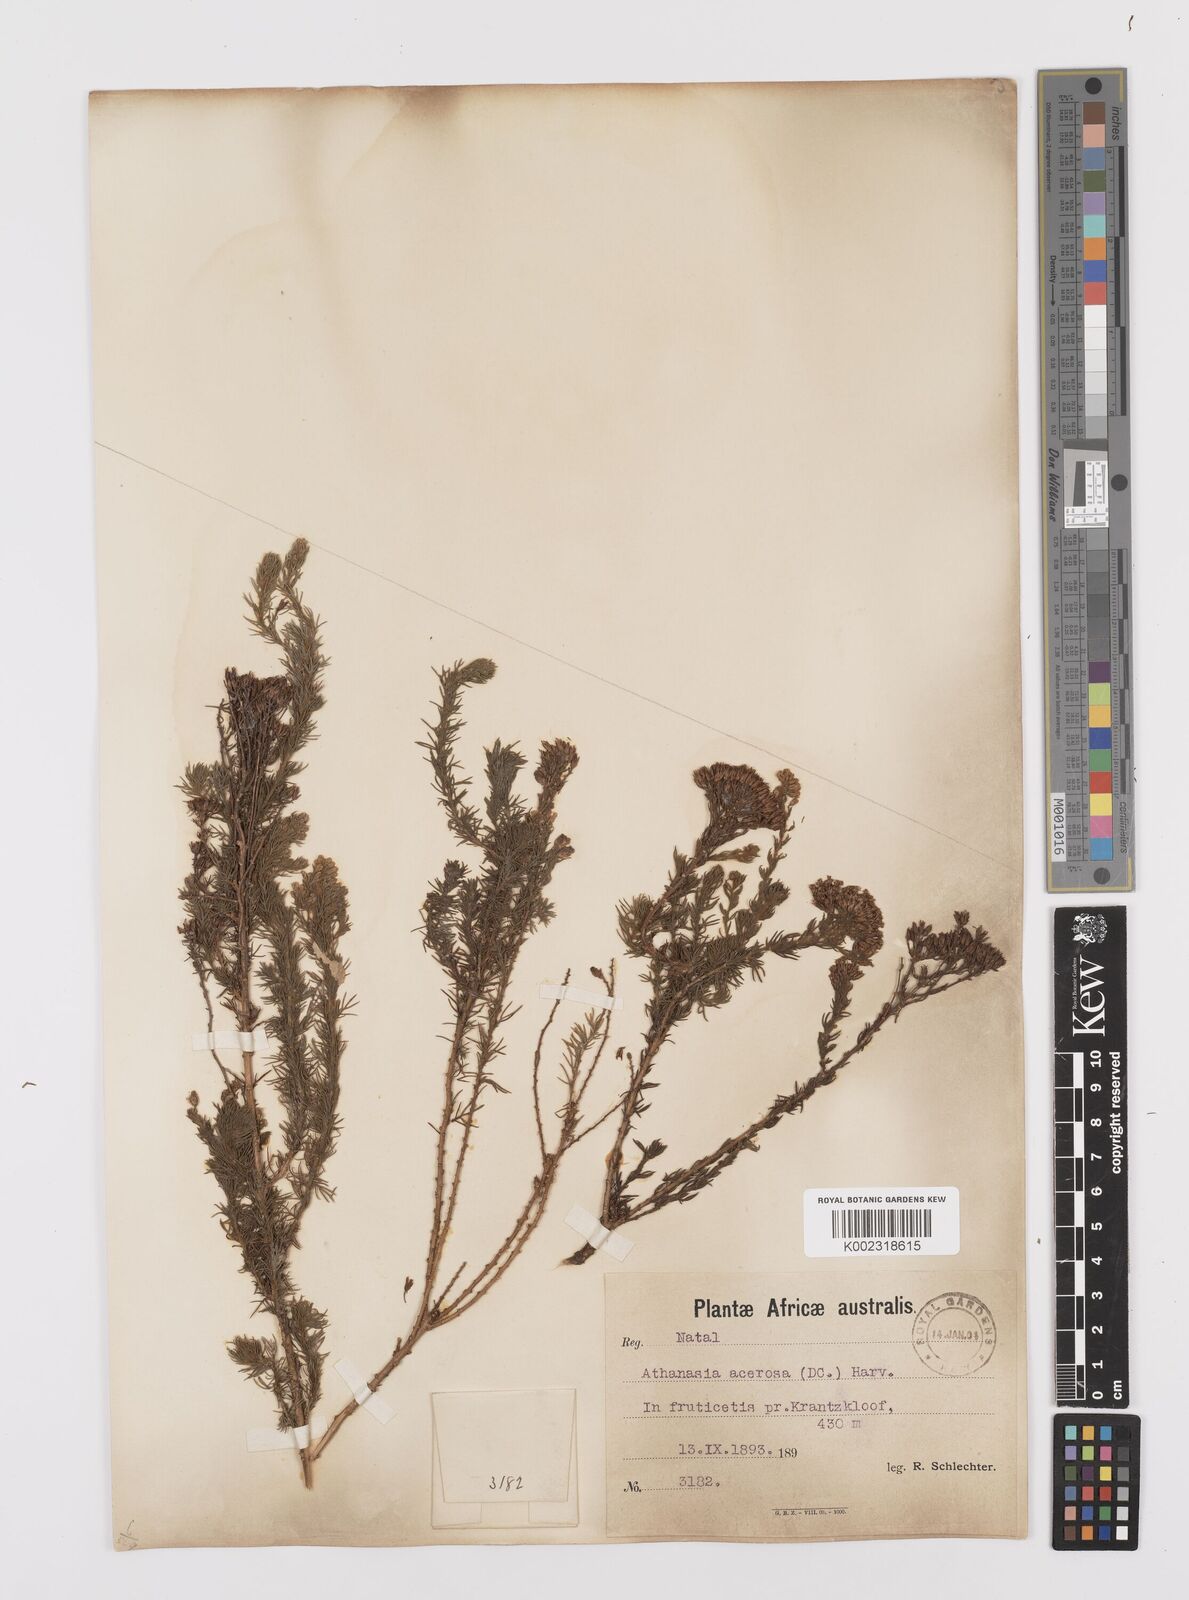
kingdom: Plantae
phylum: Tracheophyta
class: Magnoliopsida
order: Asterales
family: Asteraceae
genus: Phymaspermum
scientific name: Phymaspermum acerosum
